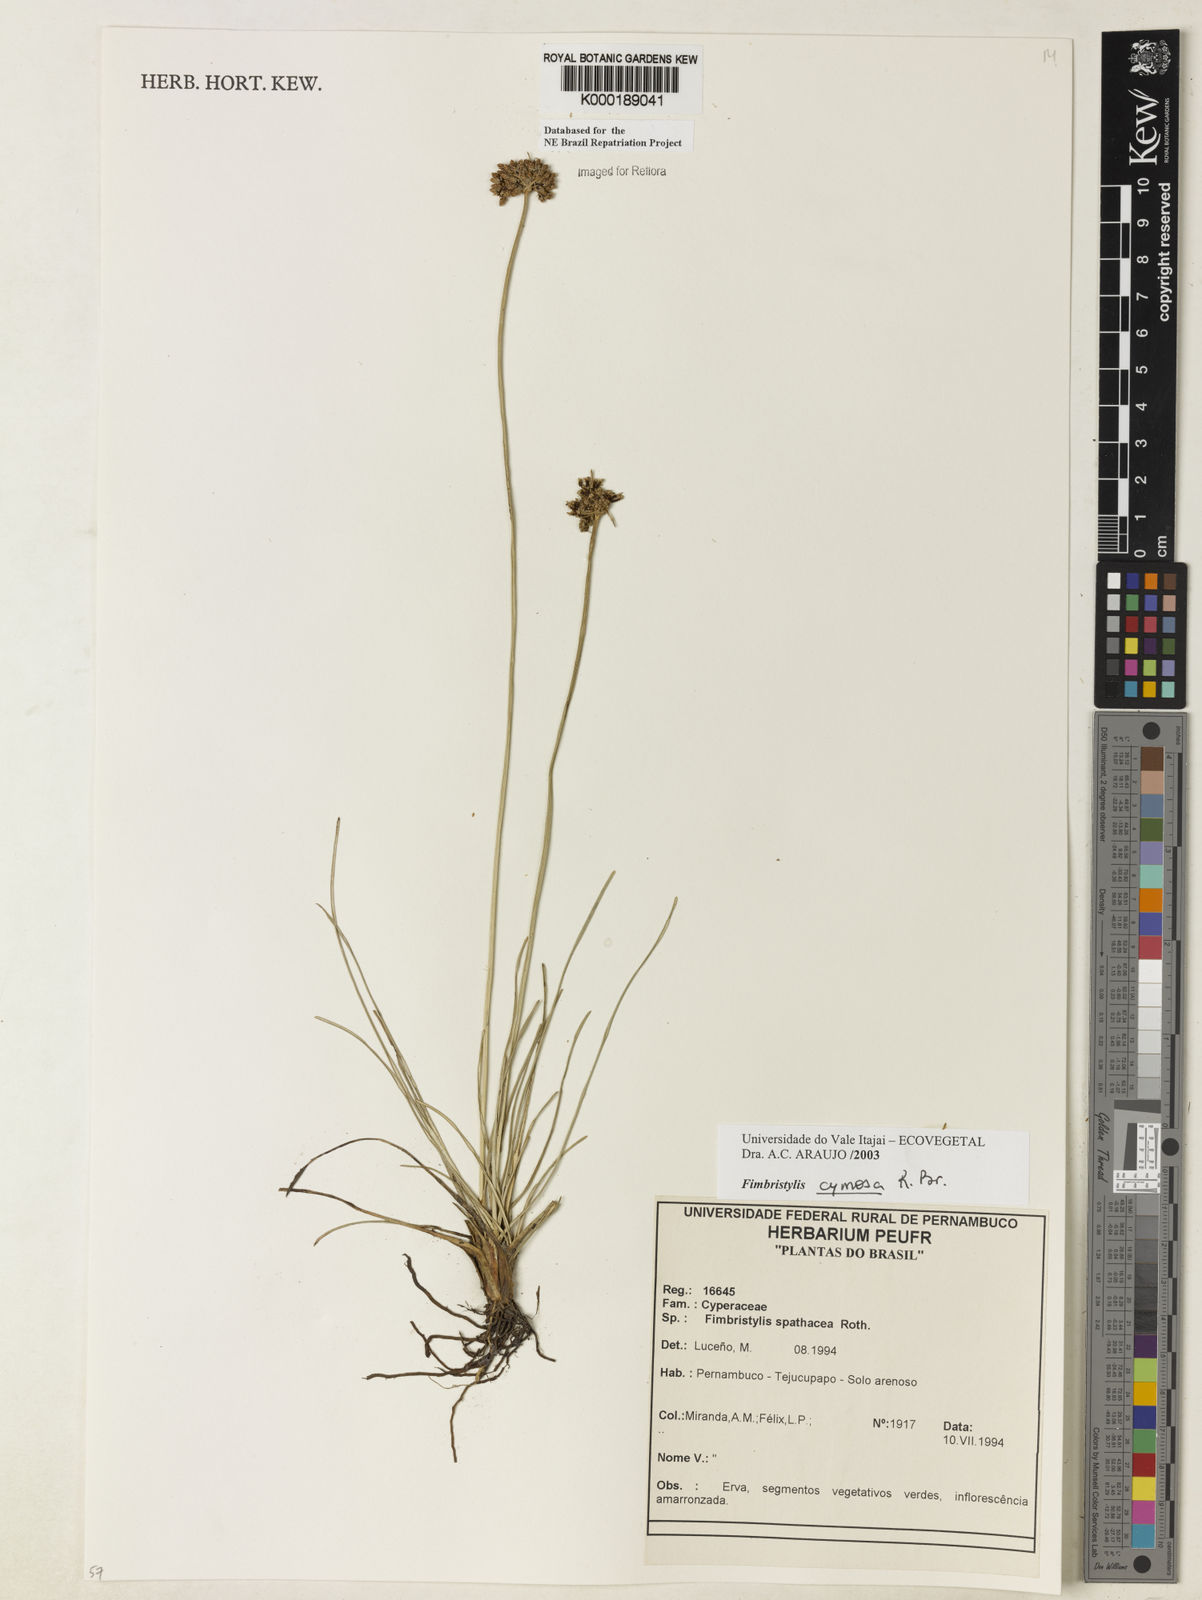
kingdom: Plantae
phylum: Tracheophyta
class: Liliopsida
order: Poales
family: Cyperaceae
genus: Fimbristylis
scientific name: Fimbristylis cymosa
